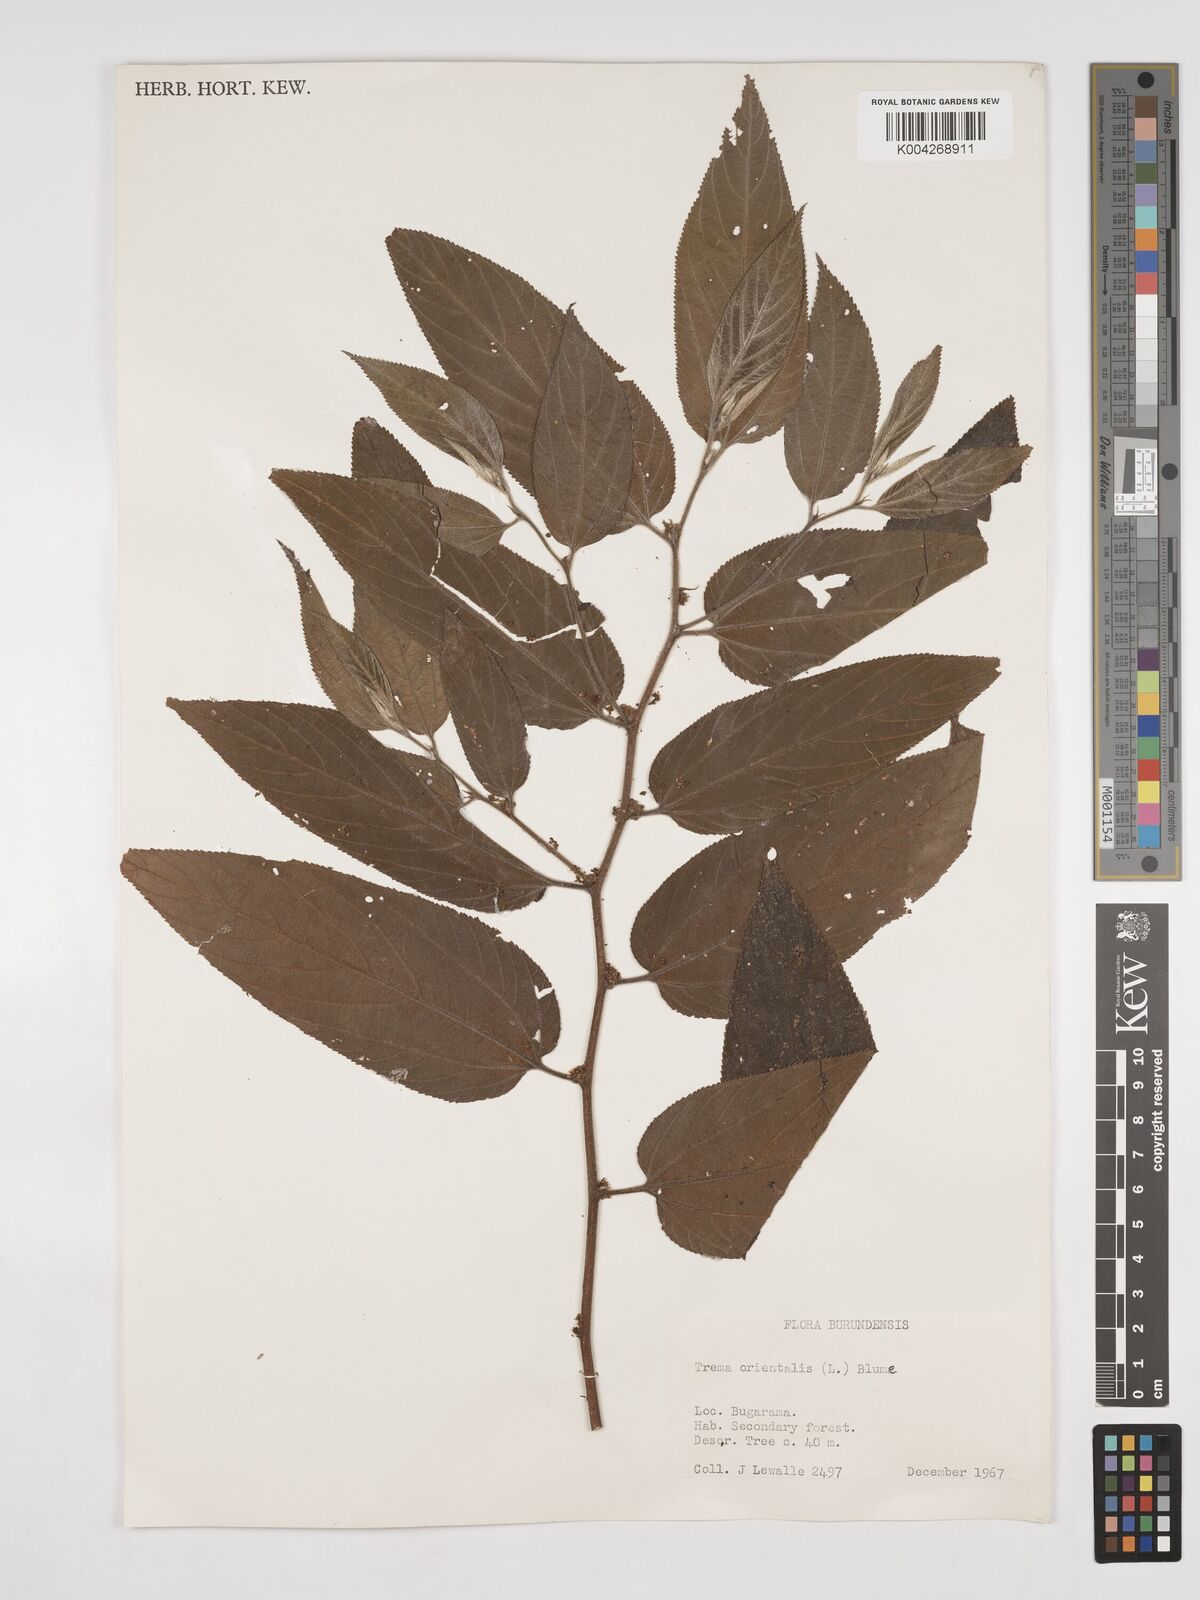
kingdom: Plantae
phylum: Tracheophyta
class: Magnoliopsida
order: Rosales
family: Cannabaceae
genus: Trema
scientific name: Trema orientale
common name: Indian charcoal tree
